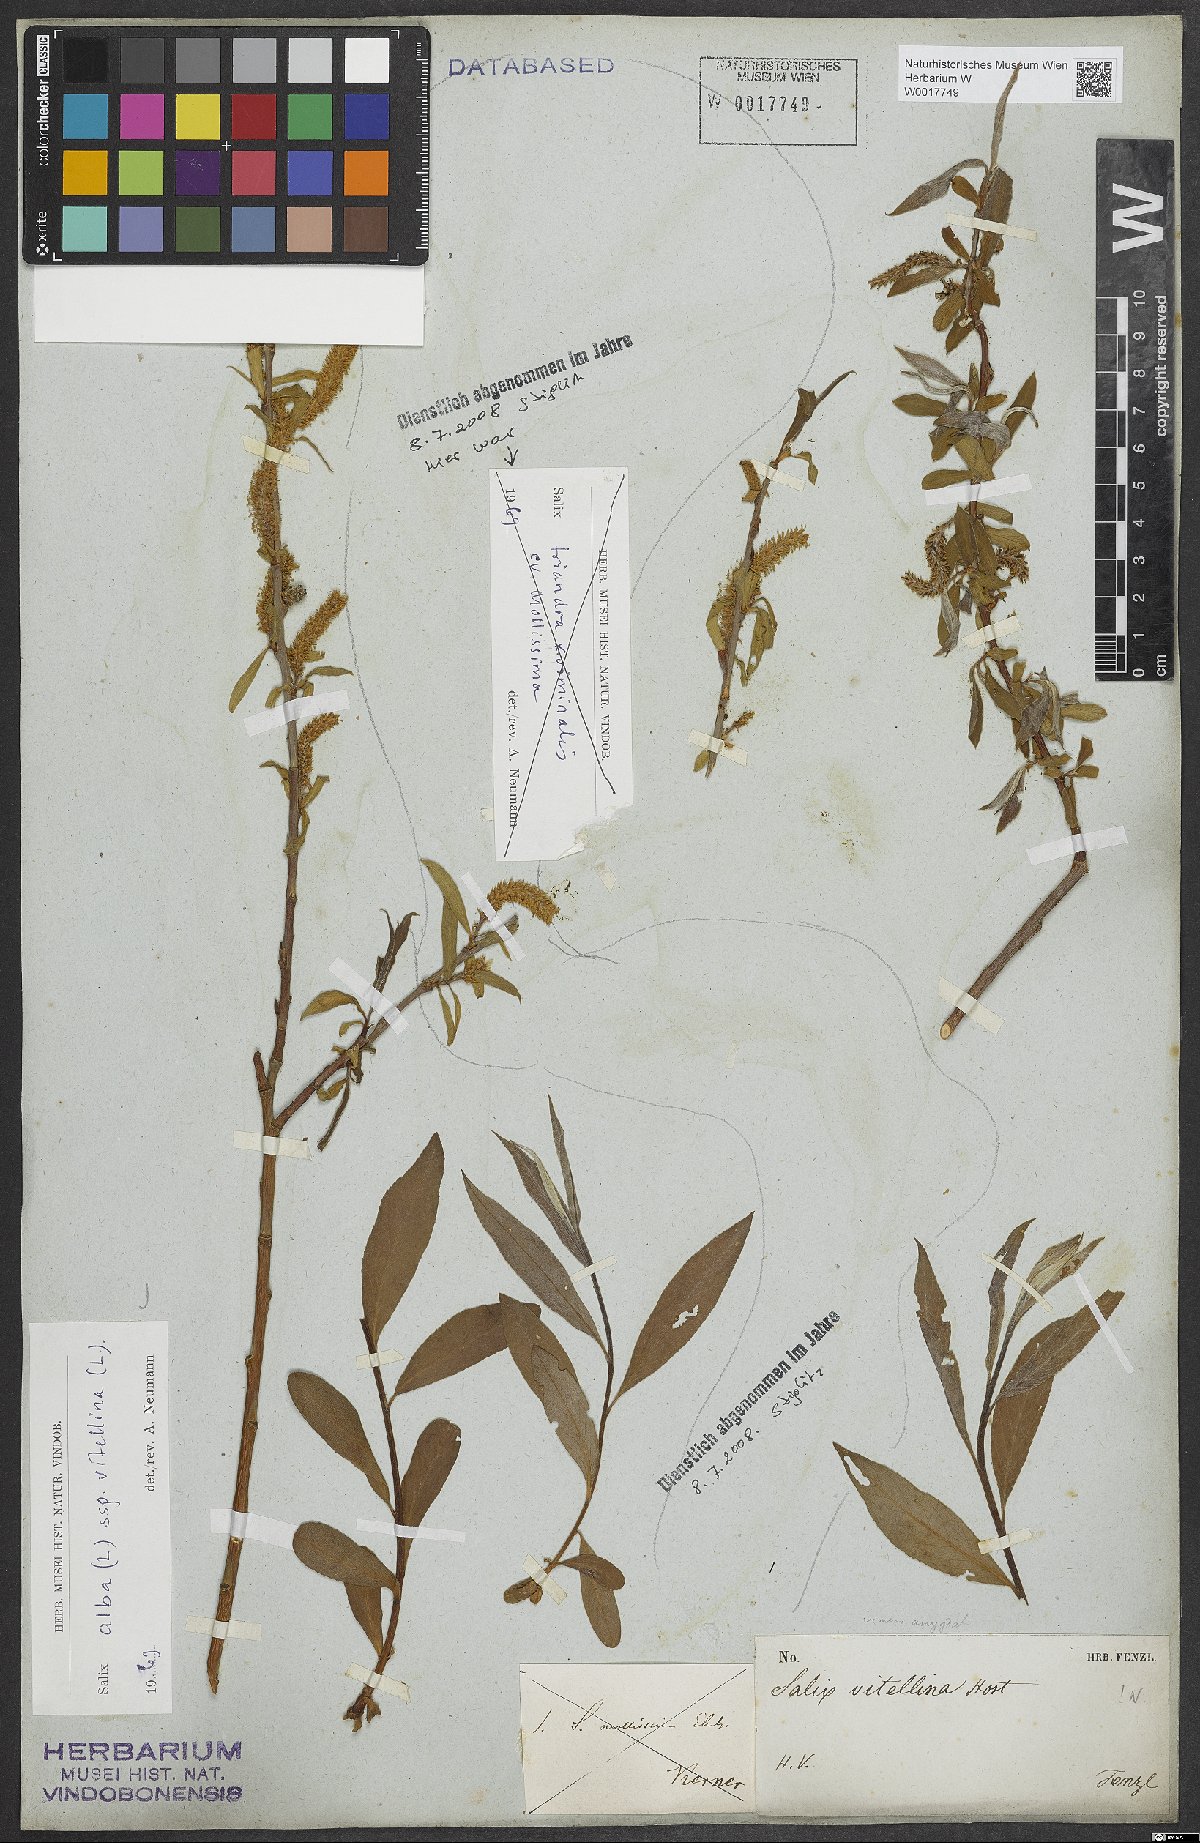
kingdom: Plantae
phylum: Tracheophyta
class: Magnoliopsida
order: Malpighiales
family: Salicaceae
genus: Salix
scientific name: Salix alba
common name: White willow
